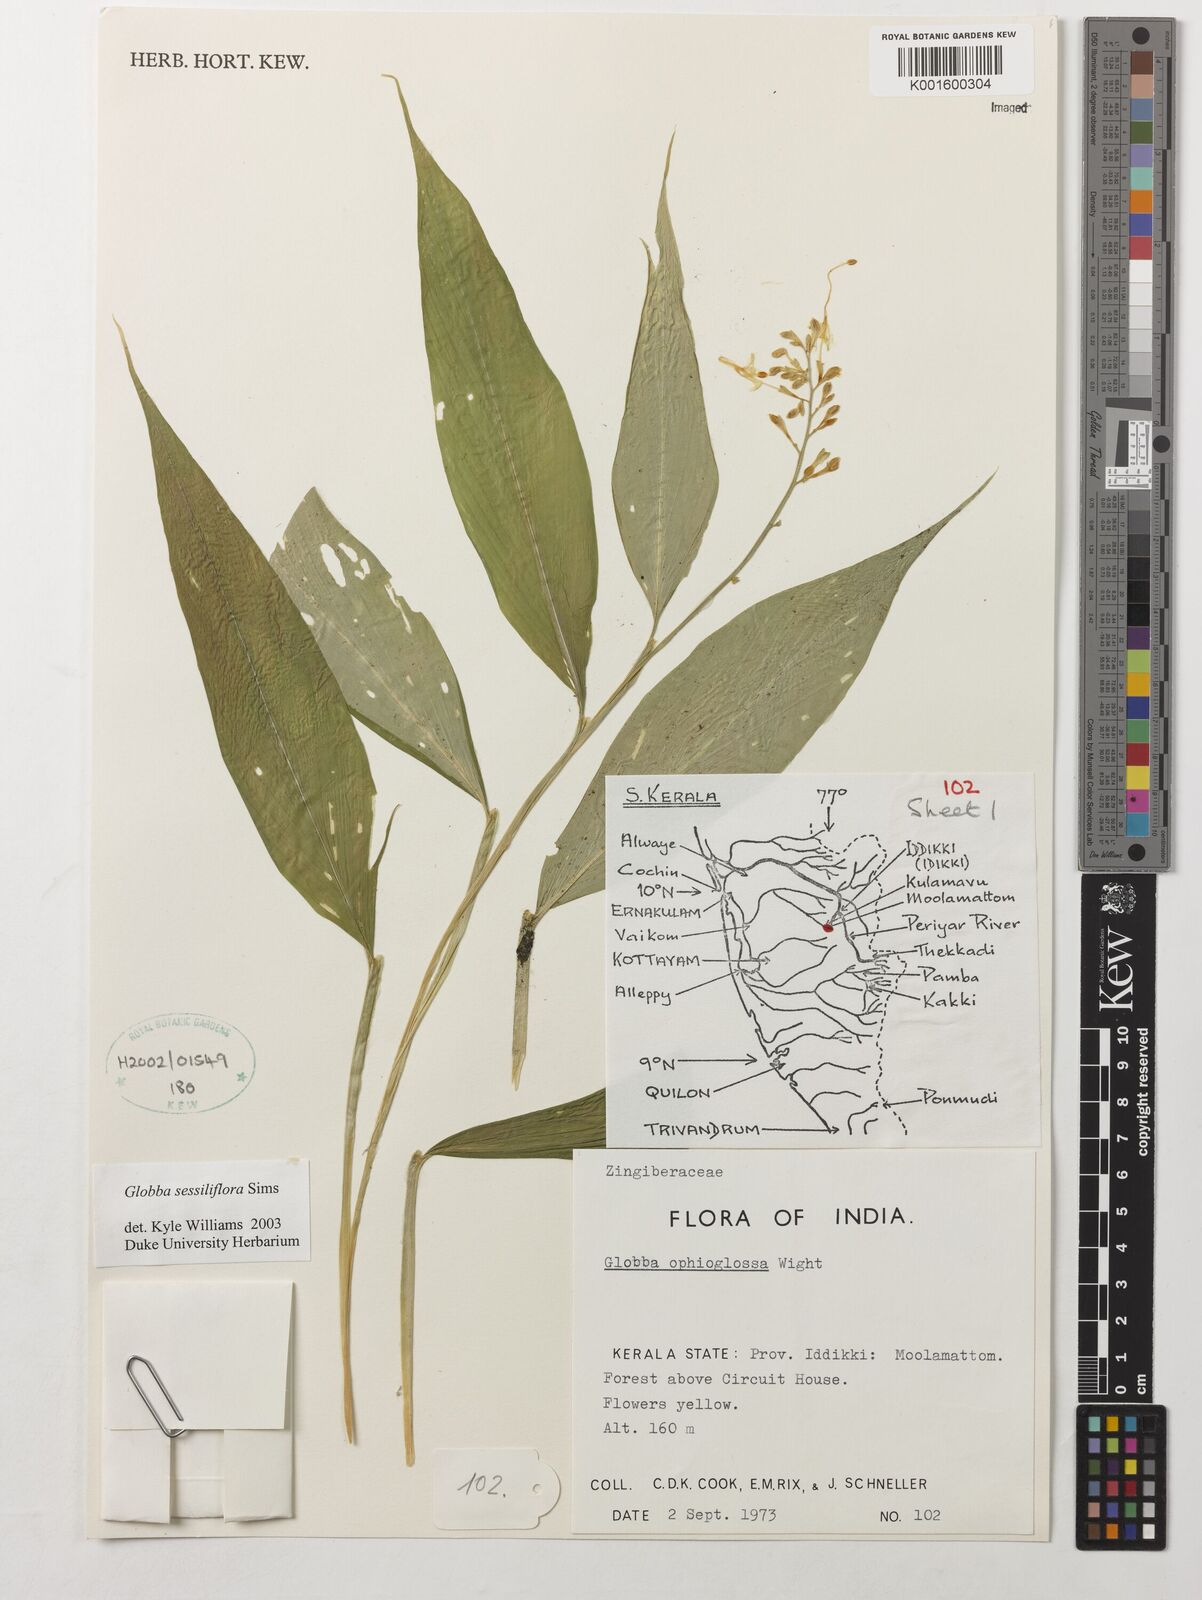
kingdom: Plantae
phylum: Tracheophyta
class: Liliopsida
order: Zingiberales
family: Zingiberaceae
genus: Globba
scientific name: Globba sessiliflora
